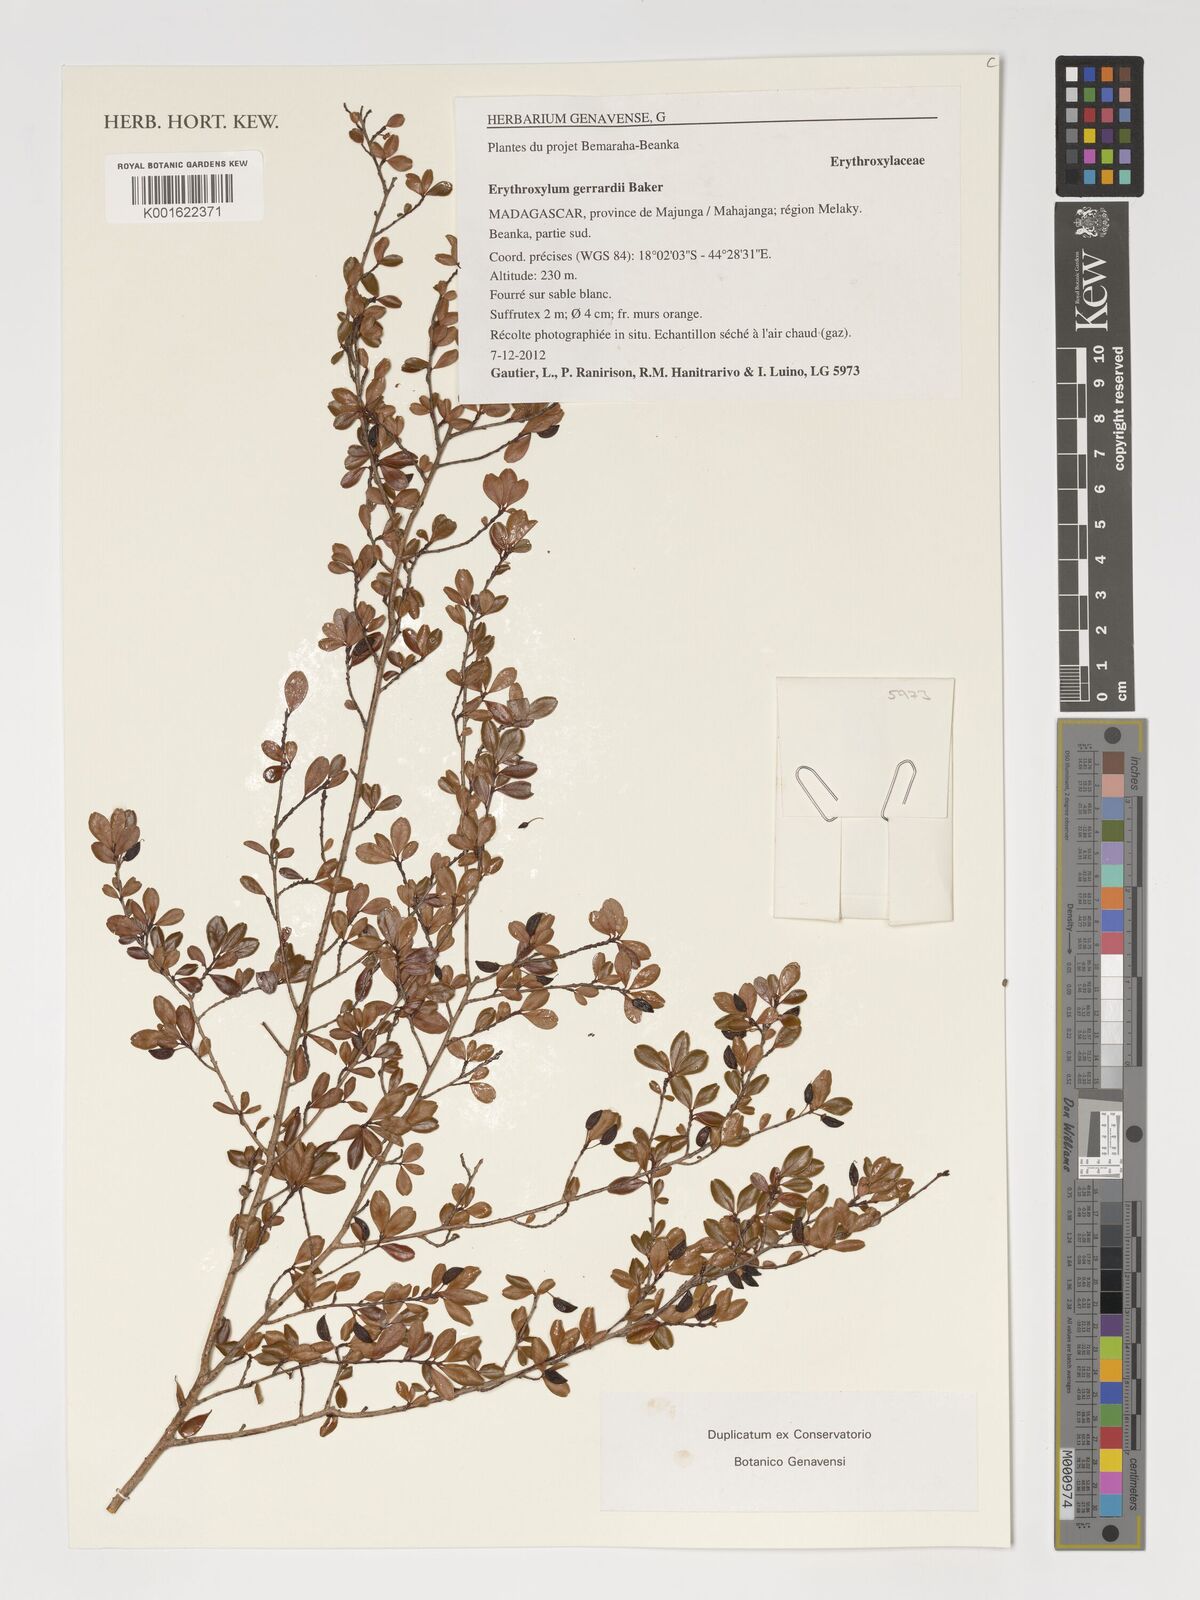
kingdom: Plantae
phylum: Tracheophyta
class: Magnoliopsida
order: Malpighiales
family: Erythroxylaceae
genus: Erythroxylum
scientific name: Erythroxylum gerrardii
